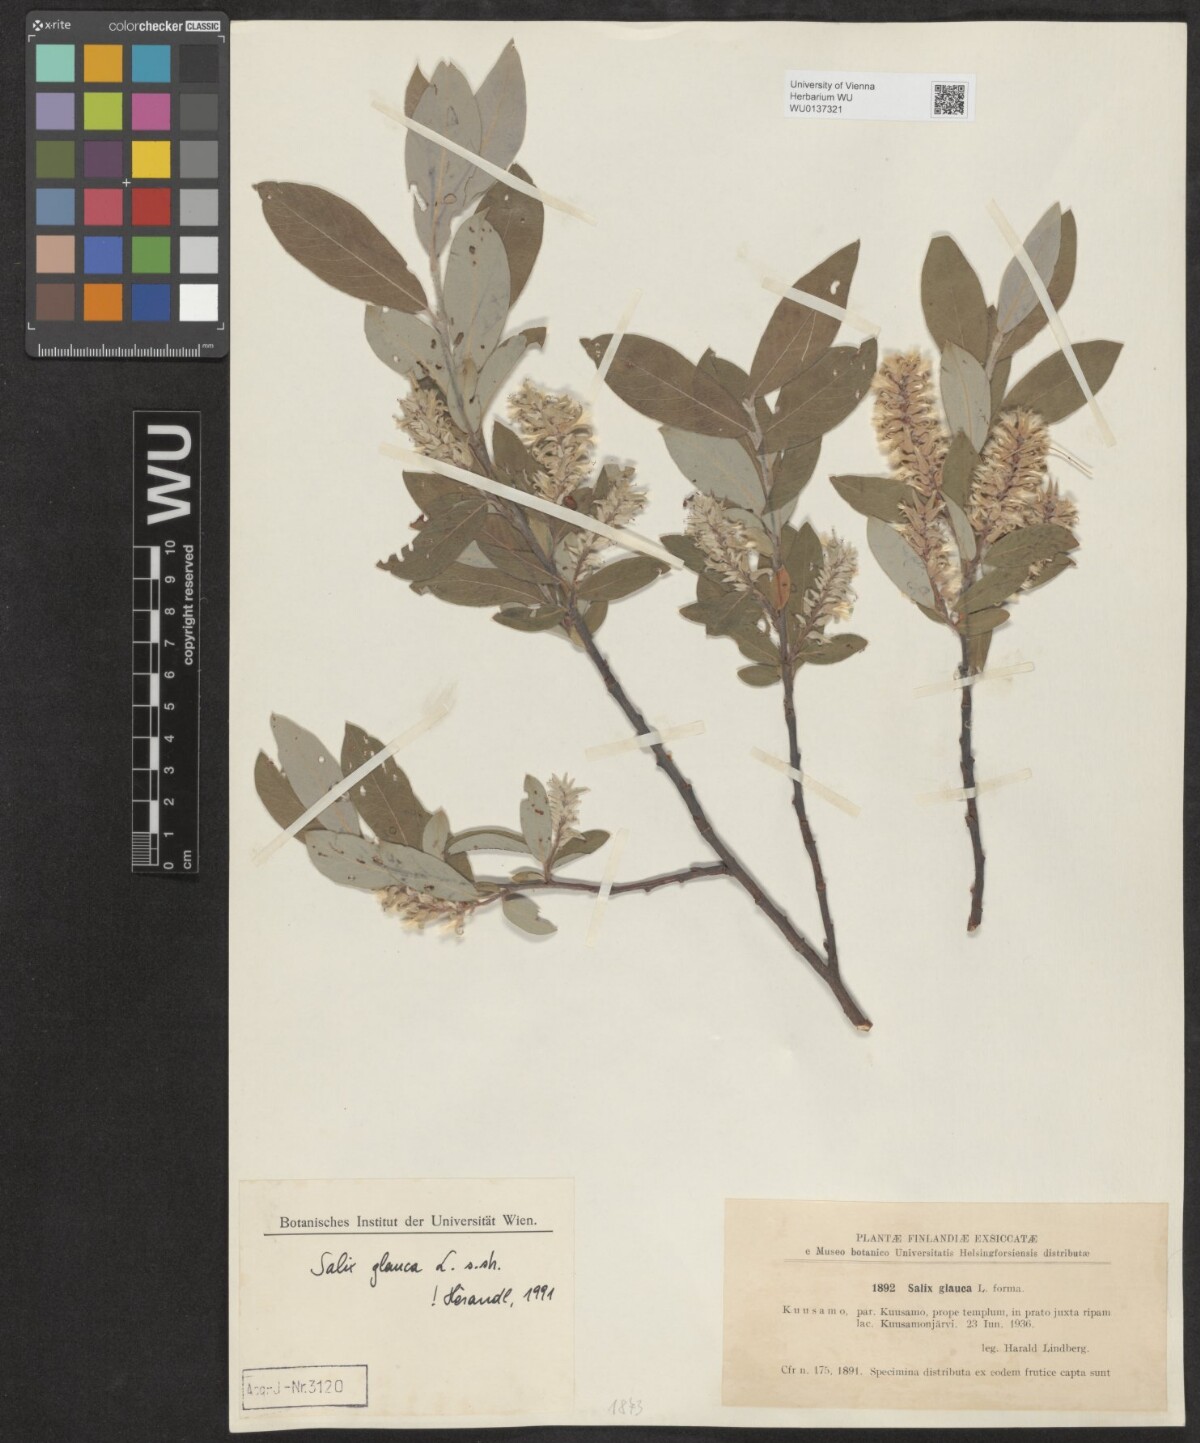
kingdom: Plantae
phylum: Tracheophyta
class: Magnoliopsida
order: Malpighiales
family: Salicaceae
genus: Salix
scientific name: Salix glauca
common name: Glaucous willow
